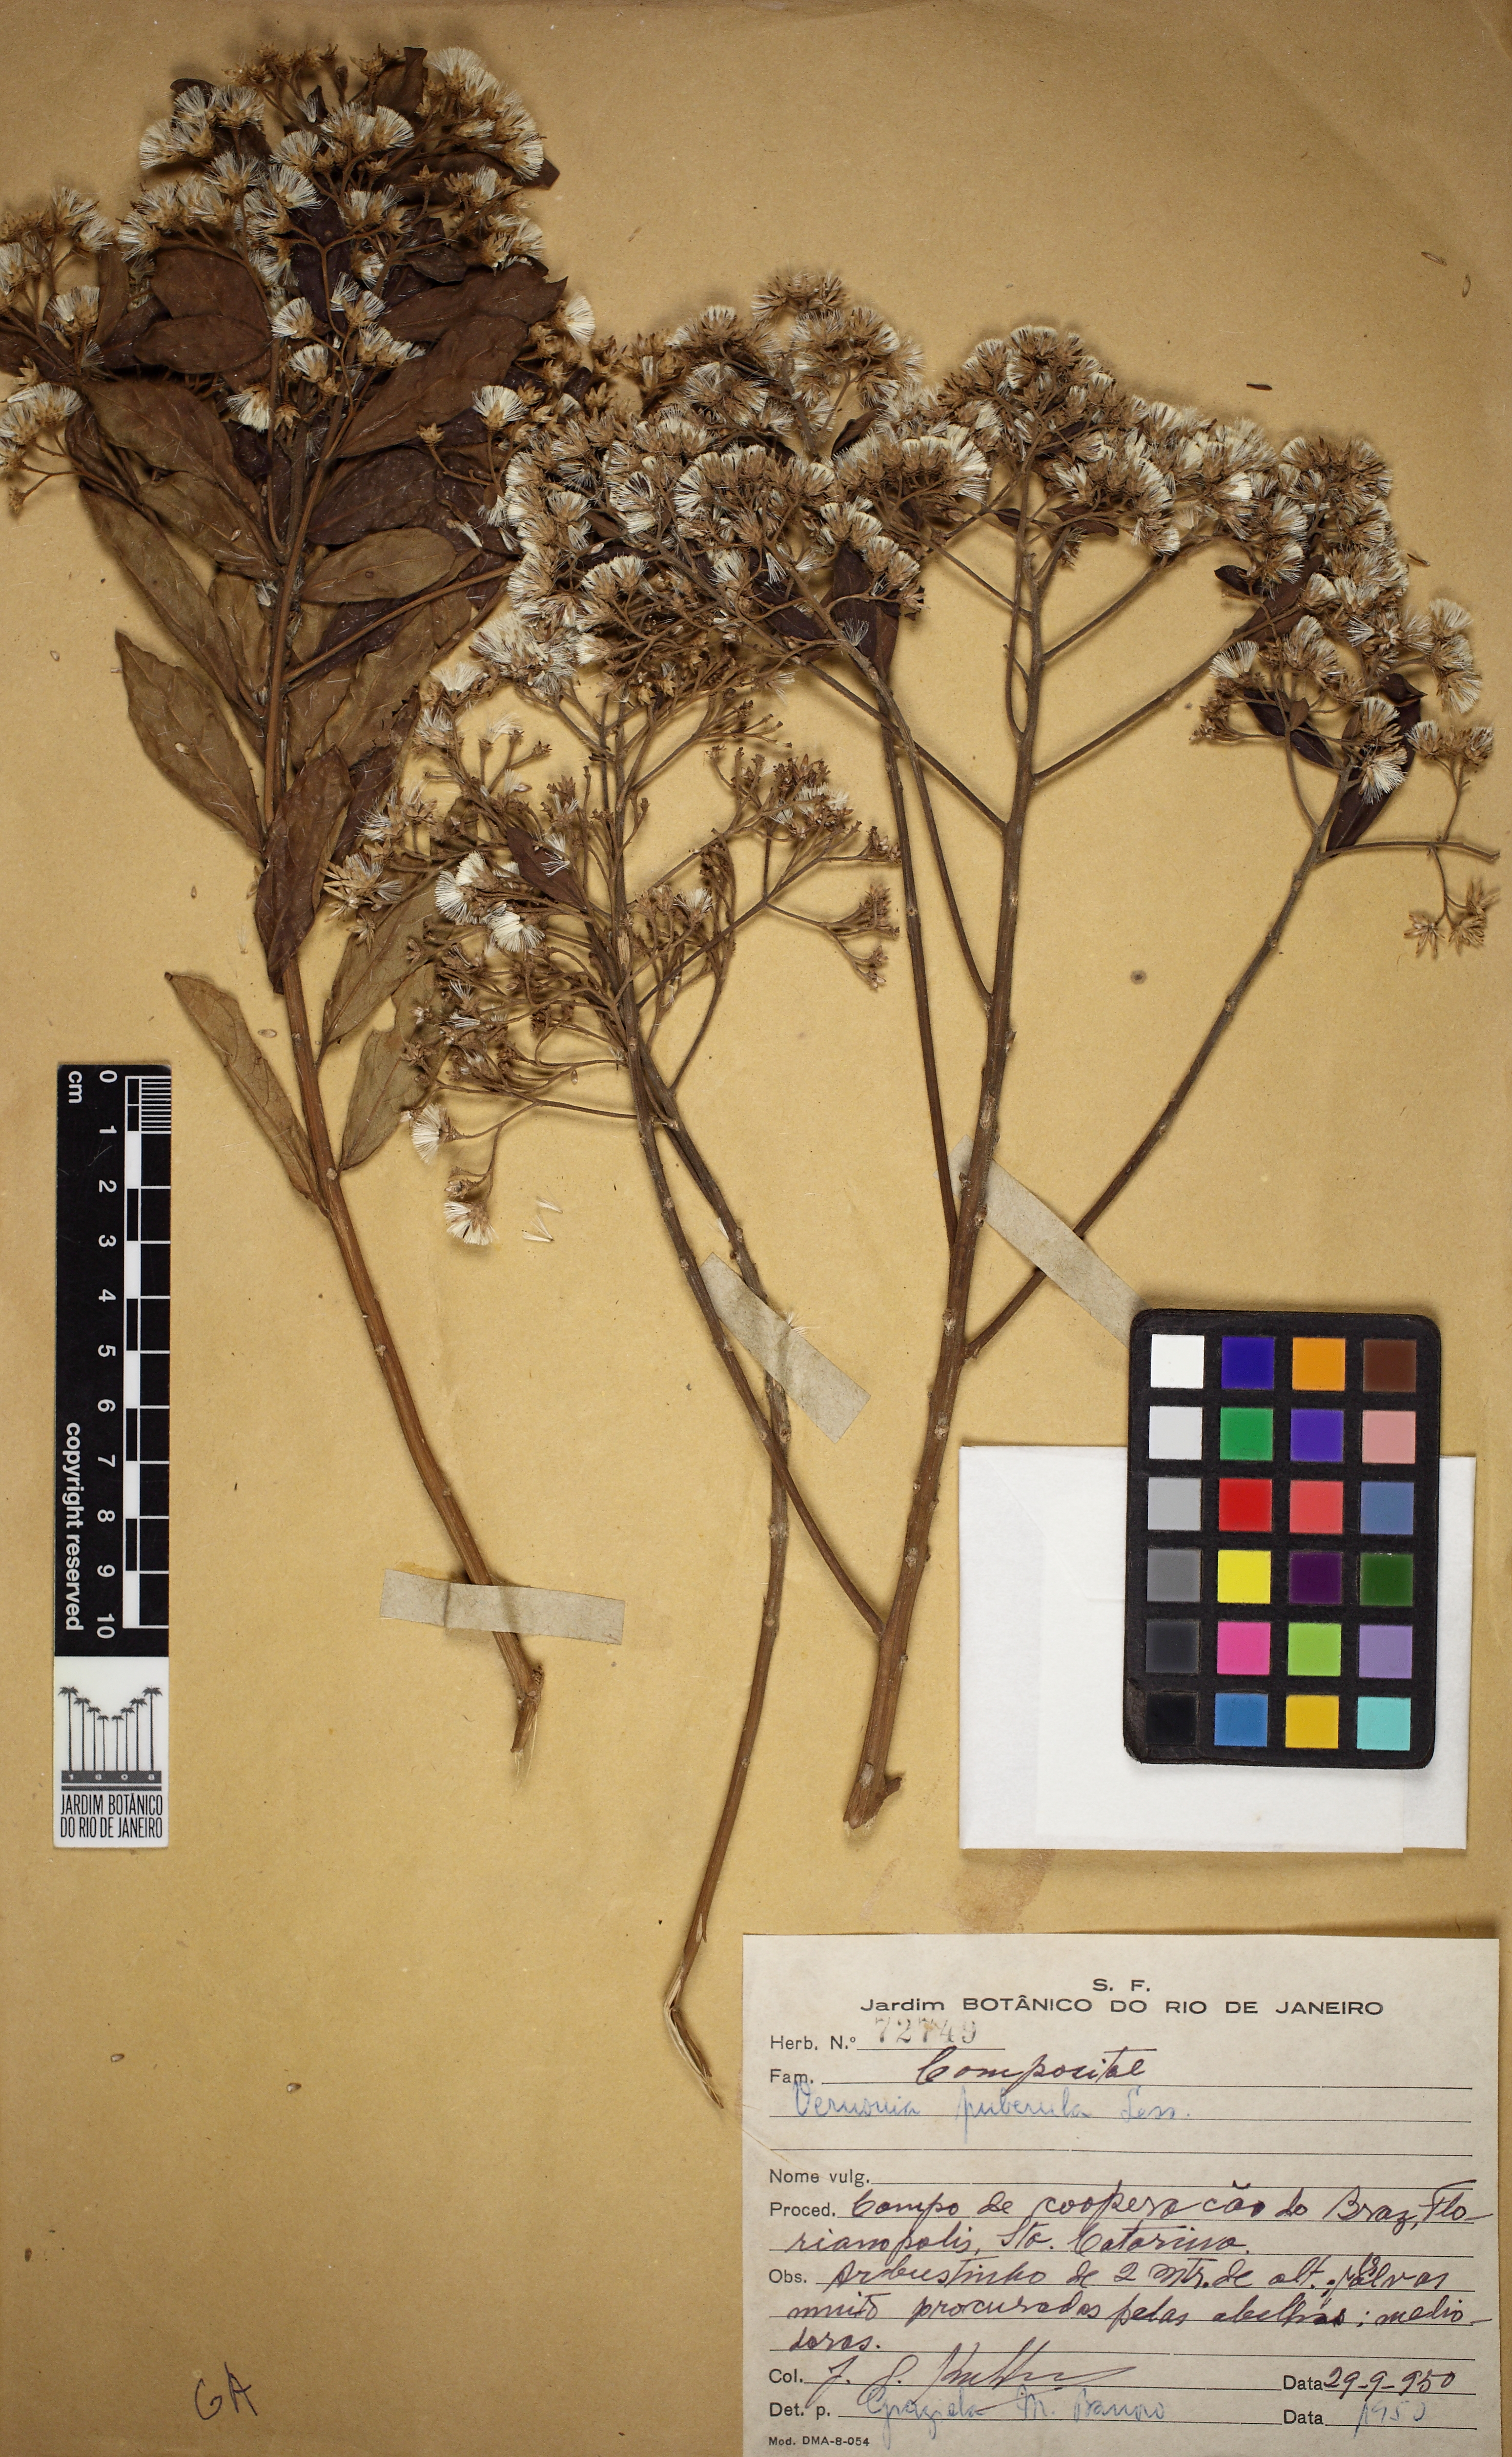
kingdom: Plantae
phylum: Tracheophyta
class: Magnoliopsida
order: Asterales
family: Asteraceae
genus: Vernonanthura
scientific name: Vernonanthura puberula
